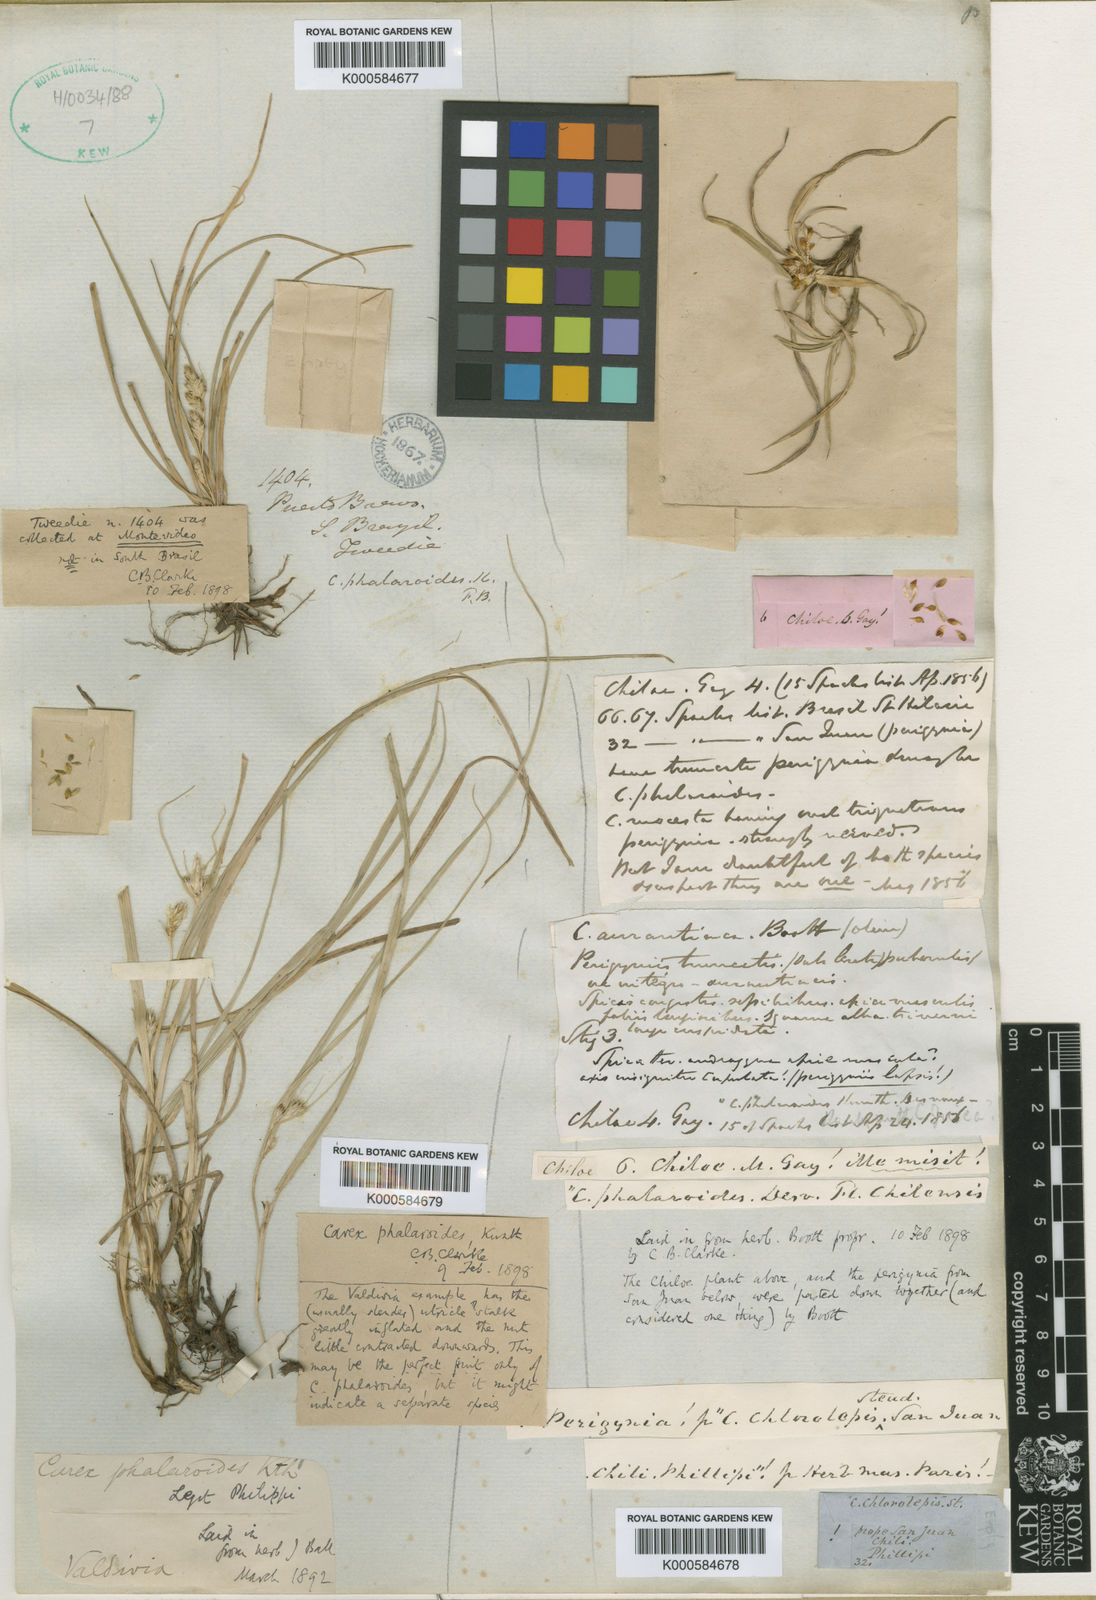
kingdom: Plantae
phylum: Tracheophyta
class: Liliopsida
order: Poales
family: Cyperaceae
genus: Carex
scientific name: Carex phalaroides
